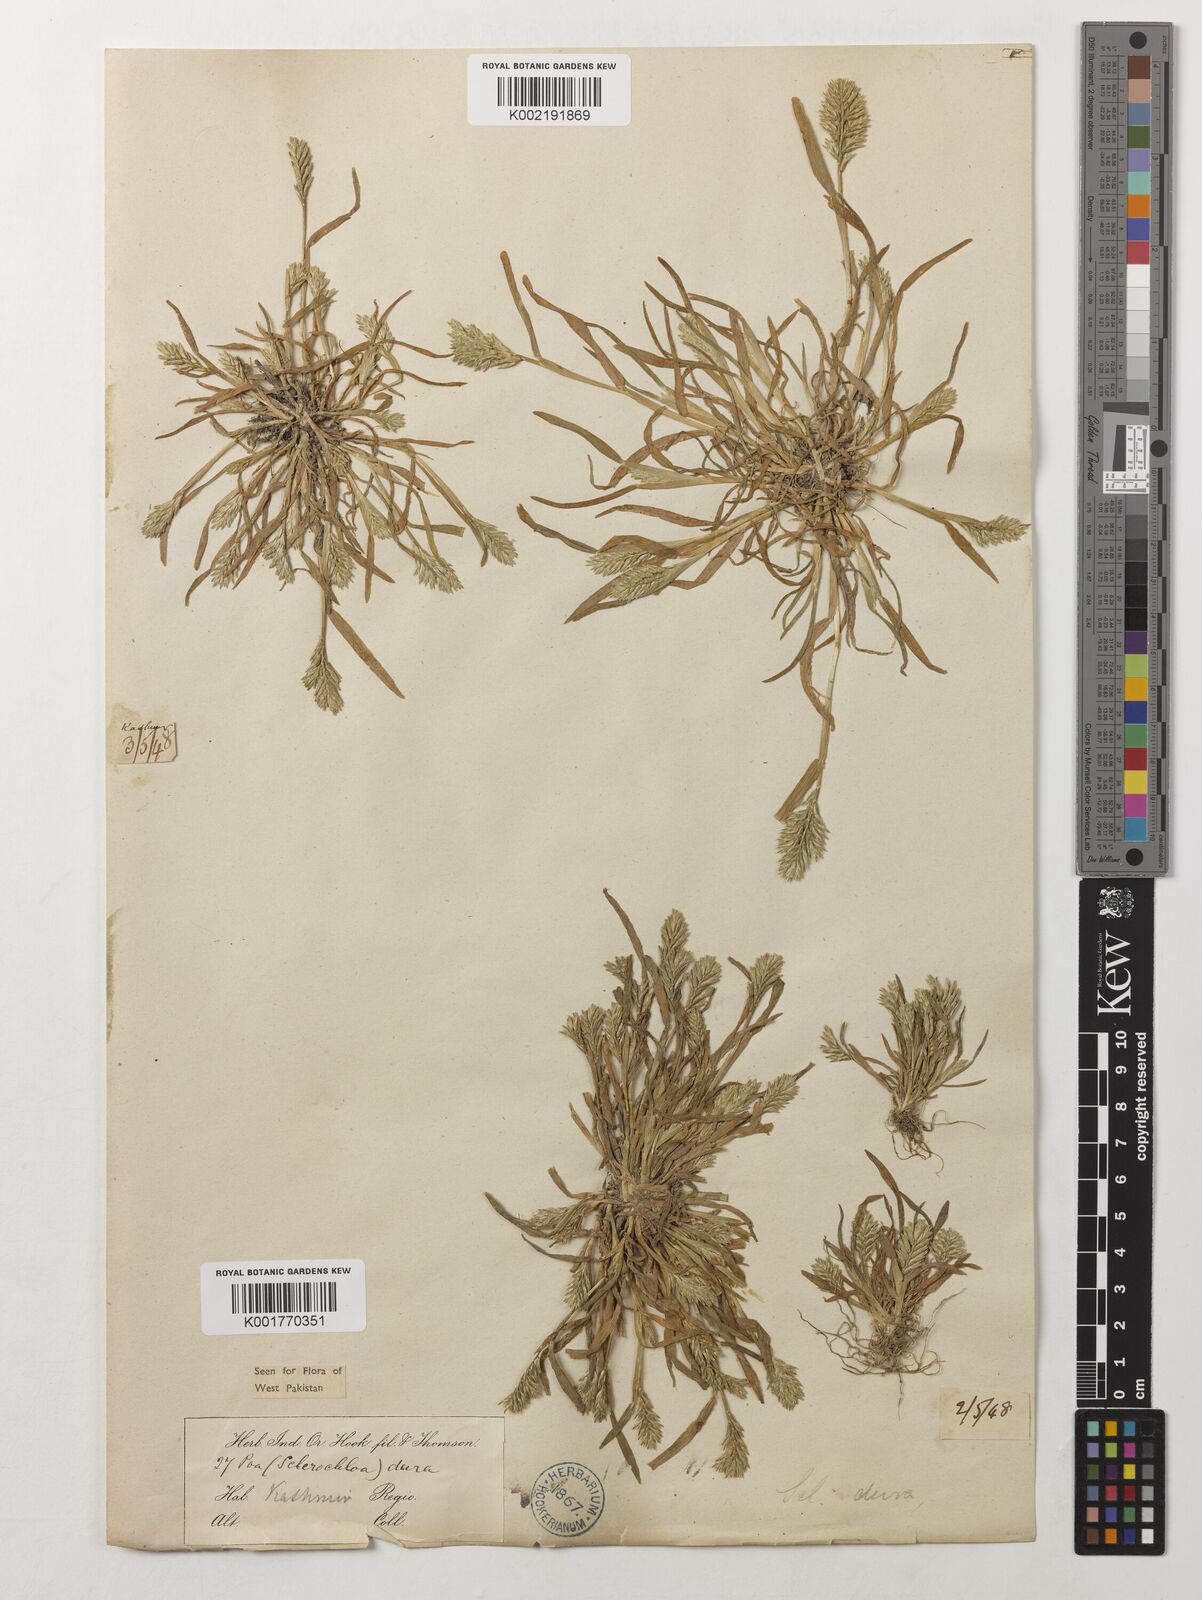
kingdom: Plantae
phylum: Tracheophyta
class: Liliopsida
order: Poales
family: Poaceae
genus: Sclerochloa
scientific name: Sclerochloa dura
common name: Common hardgrass
